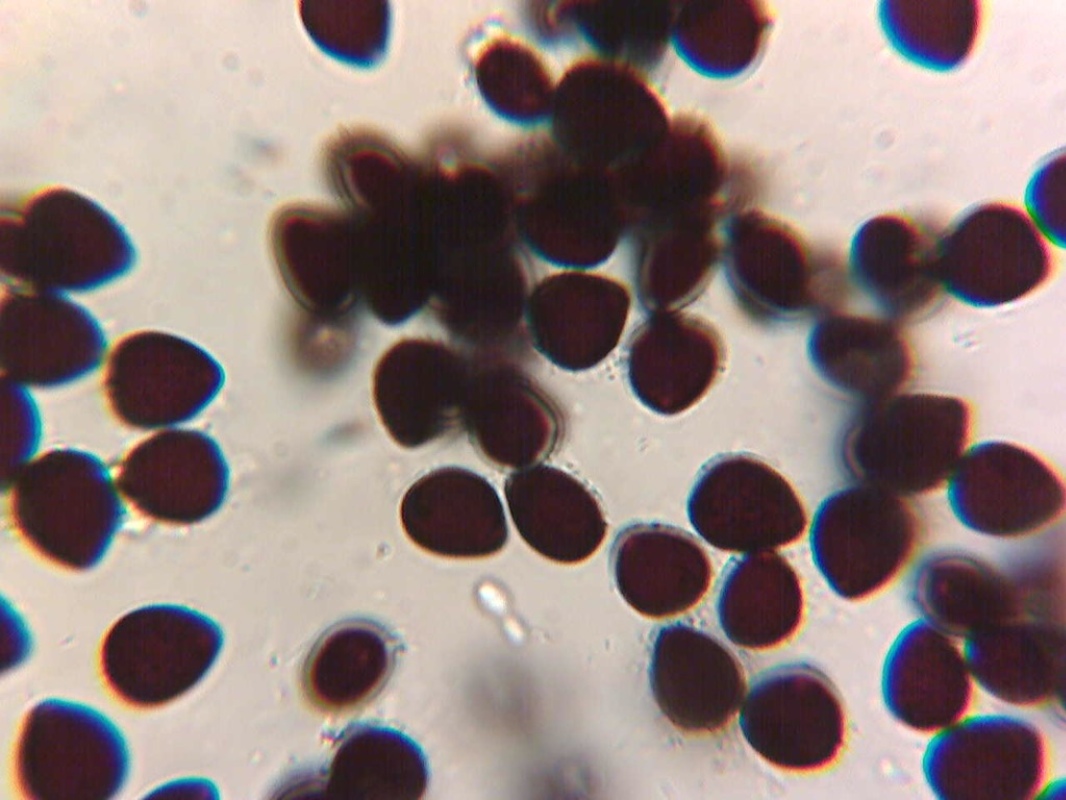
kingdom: Fungi
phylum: Basidiomycota
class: Agaricomycetes
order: Agaricales
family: Psathyrellaceae
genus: Parasola
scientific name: Parasola schroeteri
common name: bredsporet hjulhat
